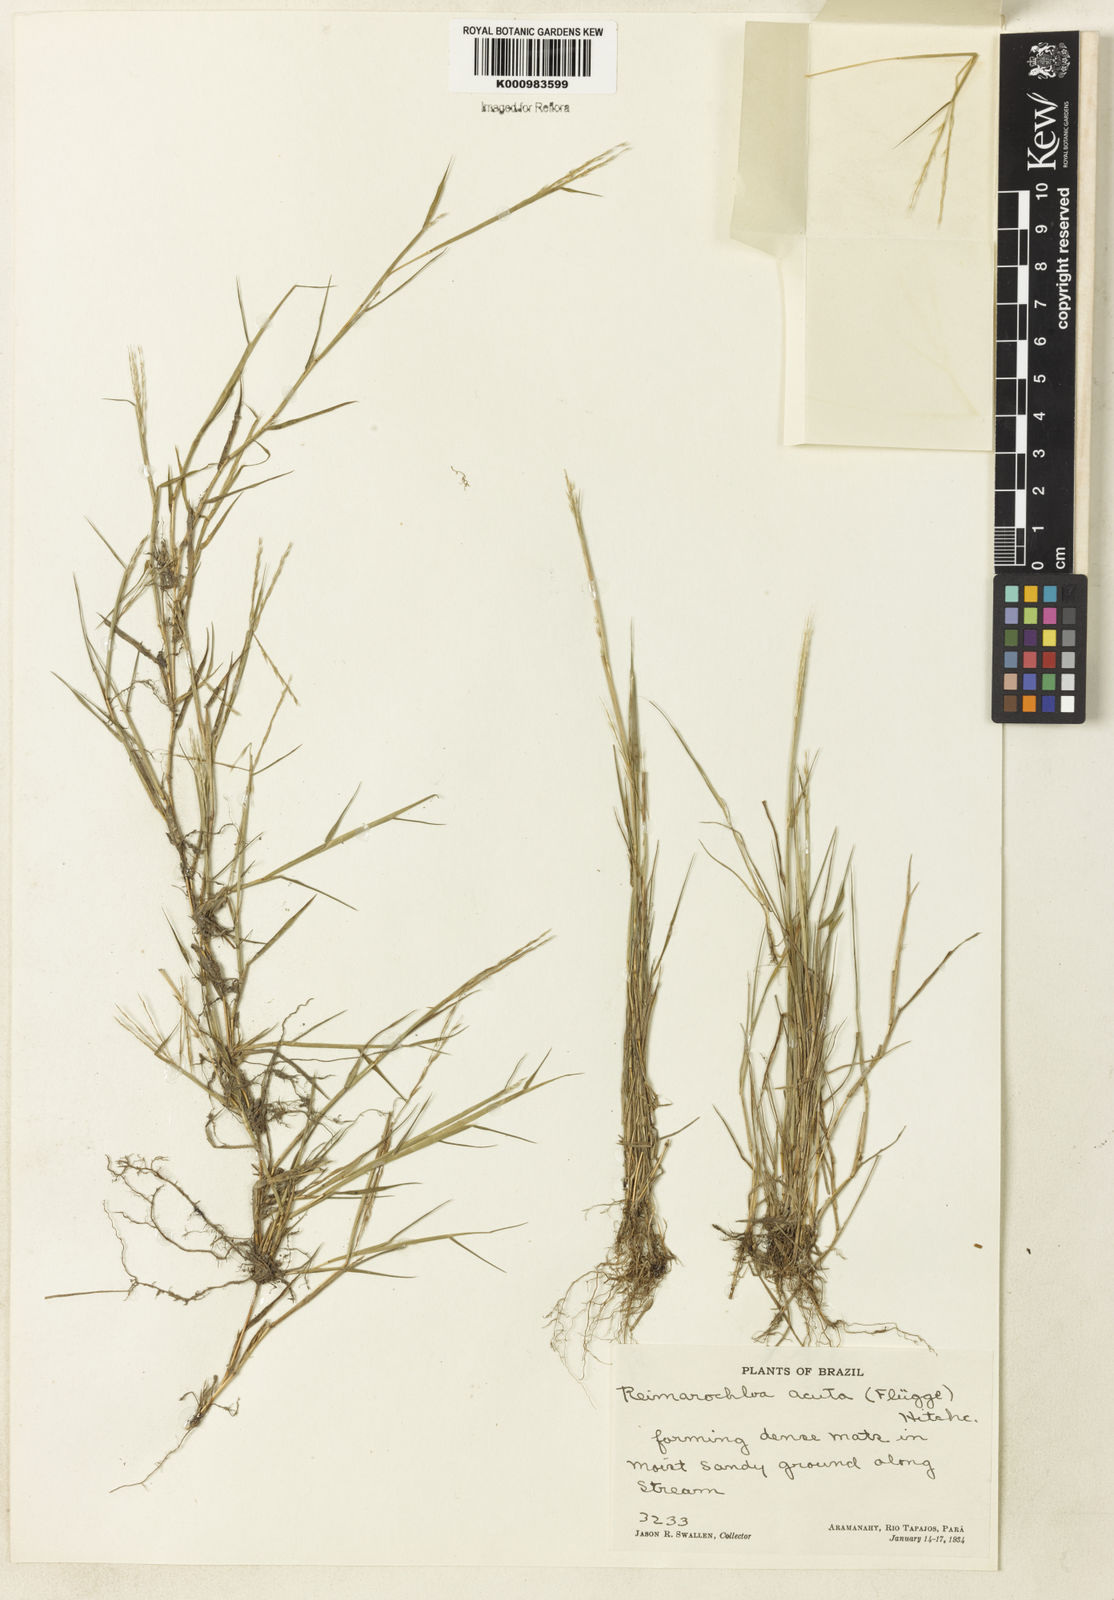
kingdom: Plantae
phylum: Tracheophyta
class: Liliopsida
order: Poales
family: Poaceae
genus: Paspalum
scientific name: Paspalum
